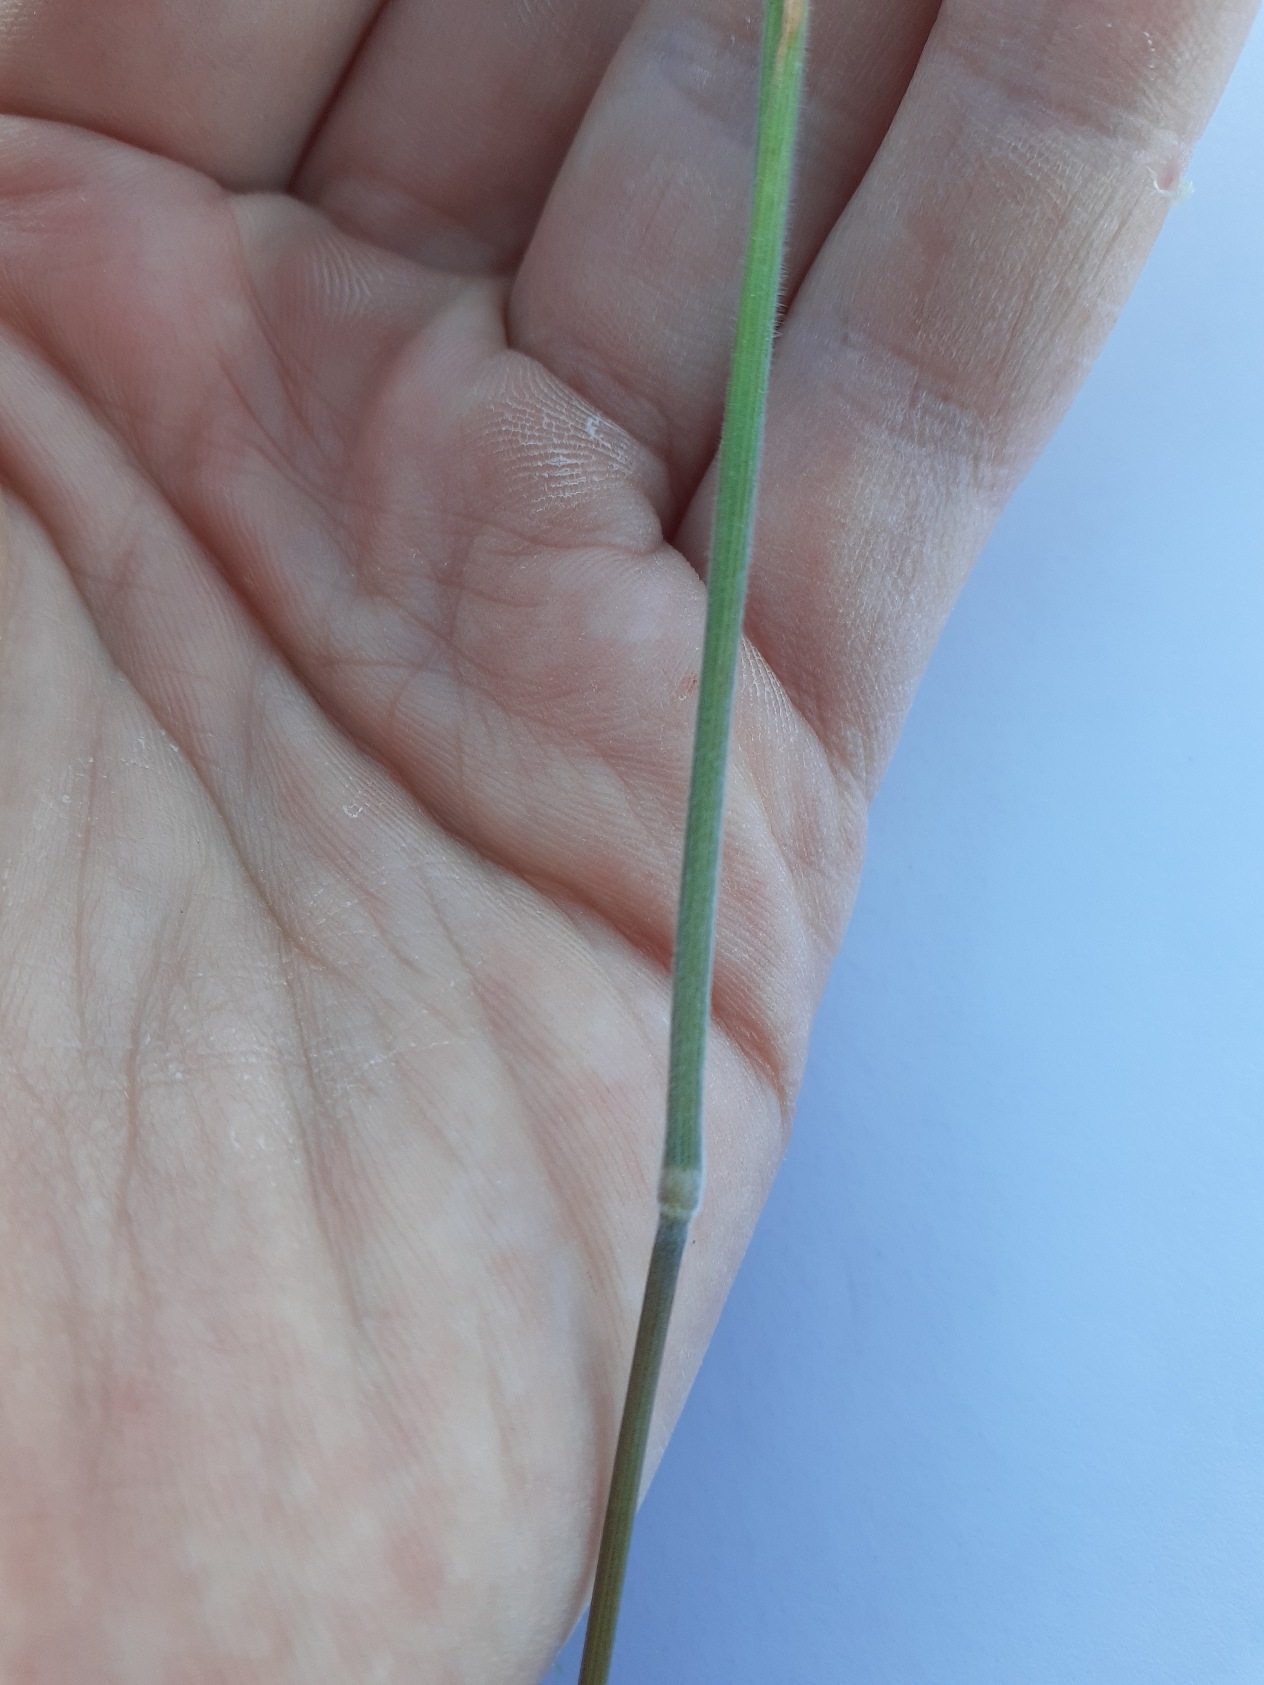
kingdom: Plantae
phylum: Tracheophyta
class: Liliopsida
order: Poales
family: Poaceae
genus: Holcus
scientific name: Holcus lanatus
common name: Fløjlsgræs
